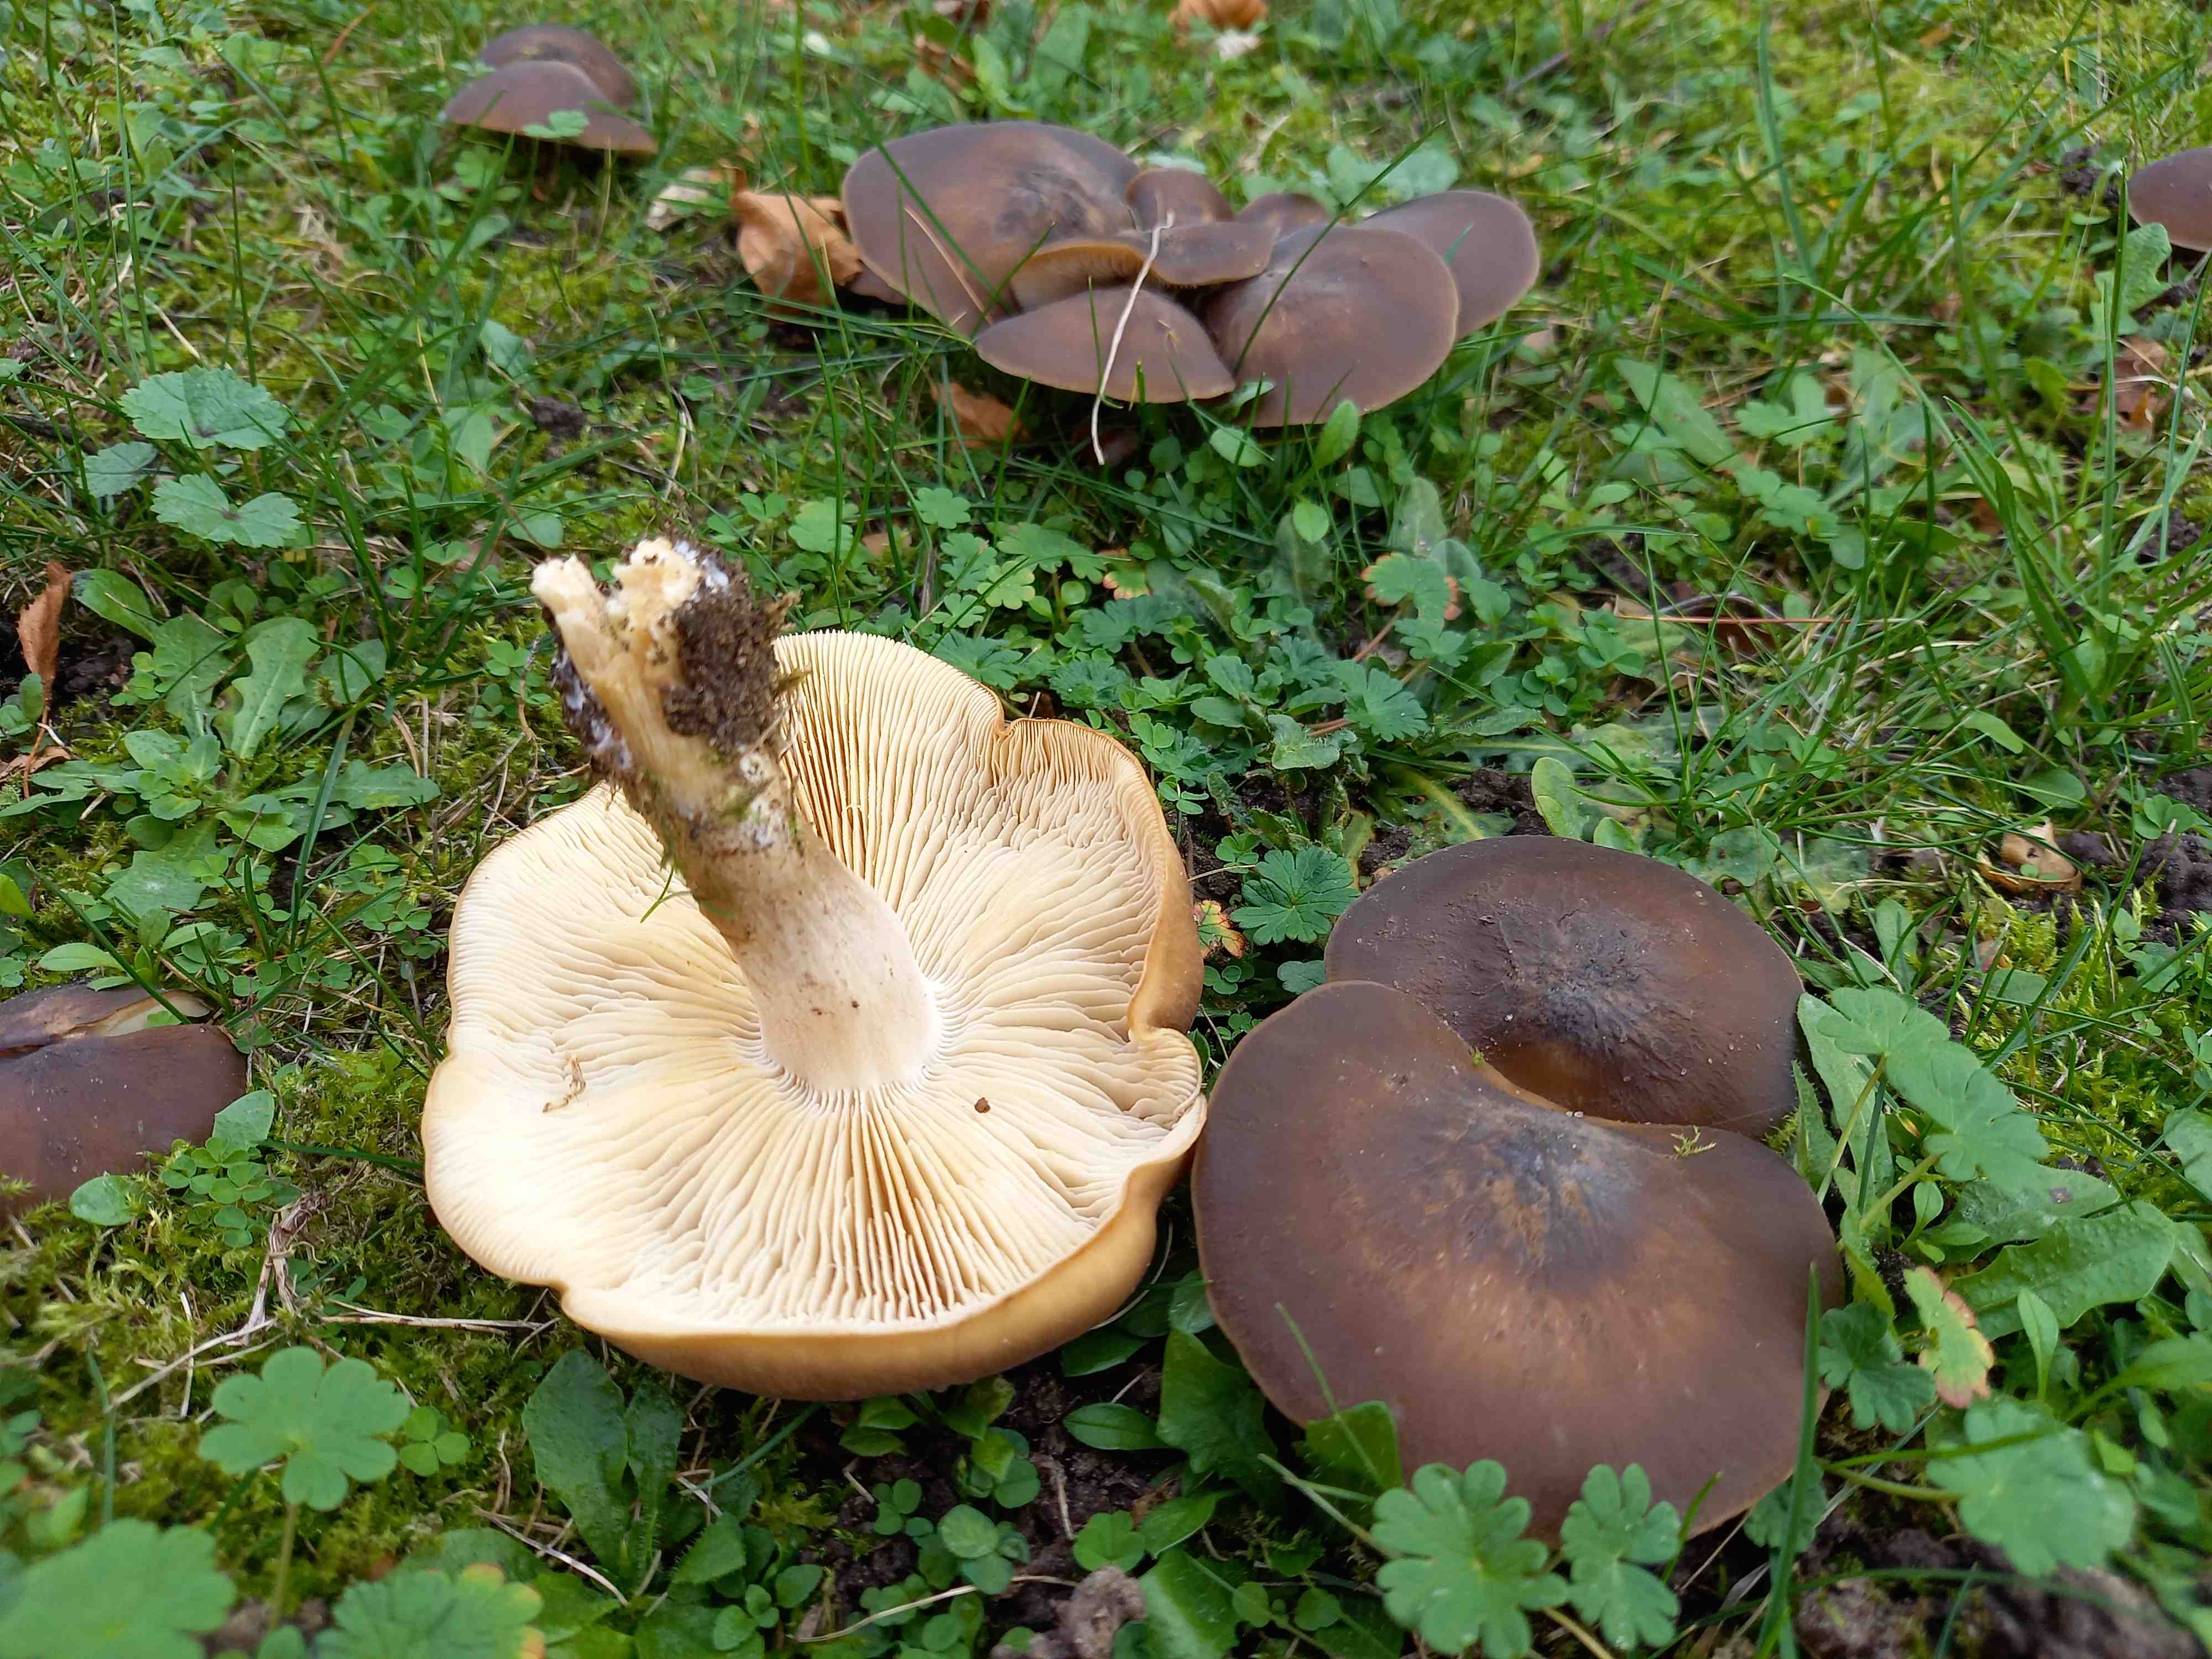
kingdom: Fungi
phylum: Basidiomycota
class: Agaricomycetes
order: Agaricales
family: Lyophyllaceae
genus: Lyophyllum
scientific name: Lyophyllum decastes
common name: røggrå gråblad
